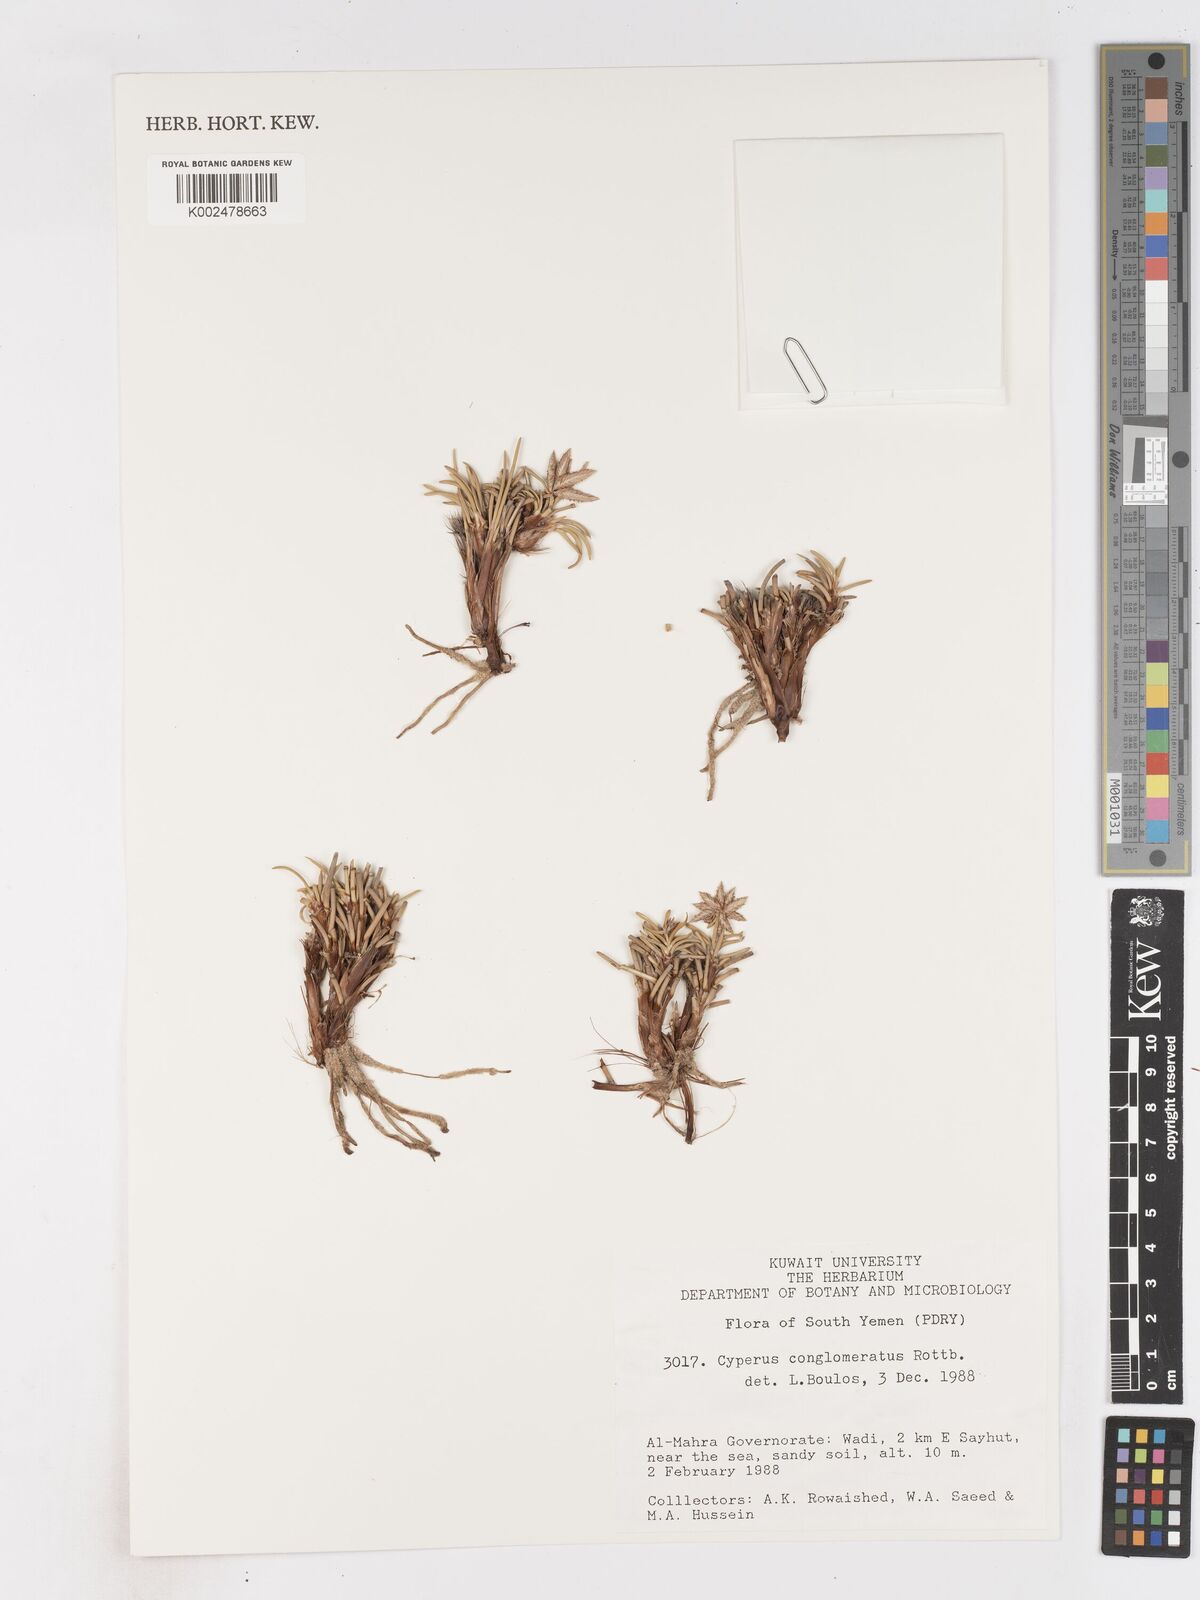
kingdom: Plantae
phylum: Tracheophyta
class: Liliopsida
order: Poales
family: Cyperaceae
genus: Cyperus
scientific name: Cyperus conglomeratus
